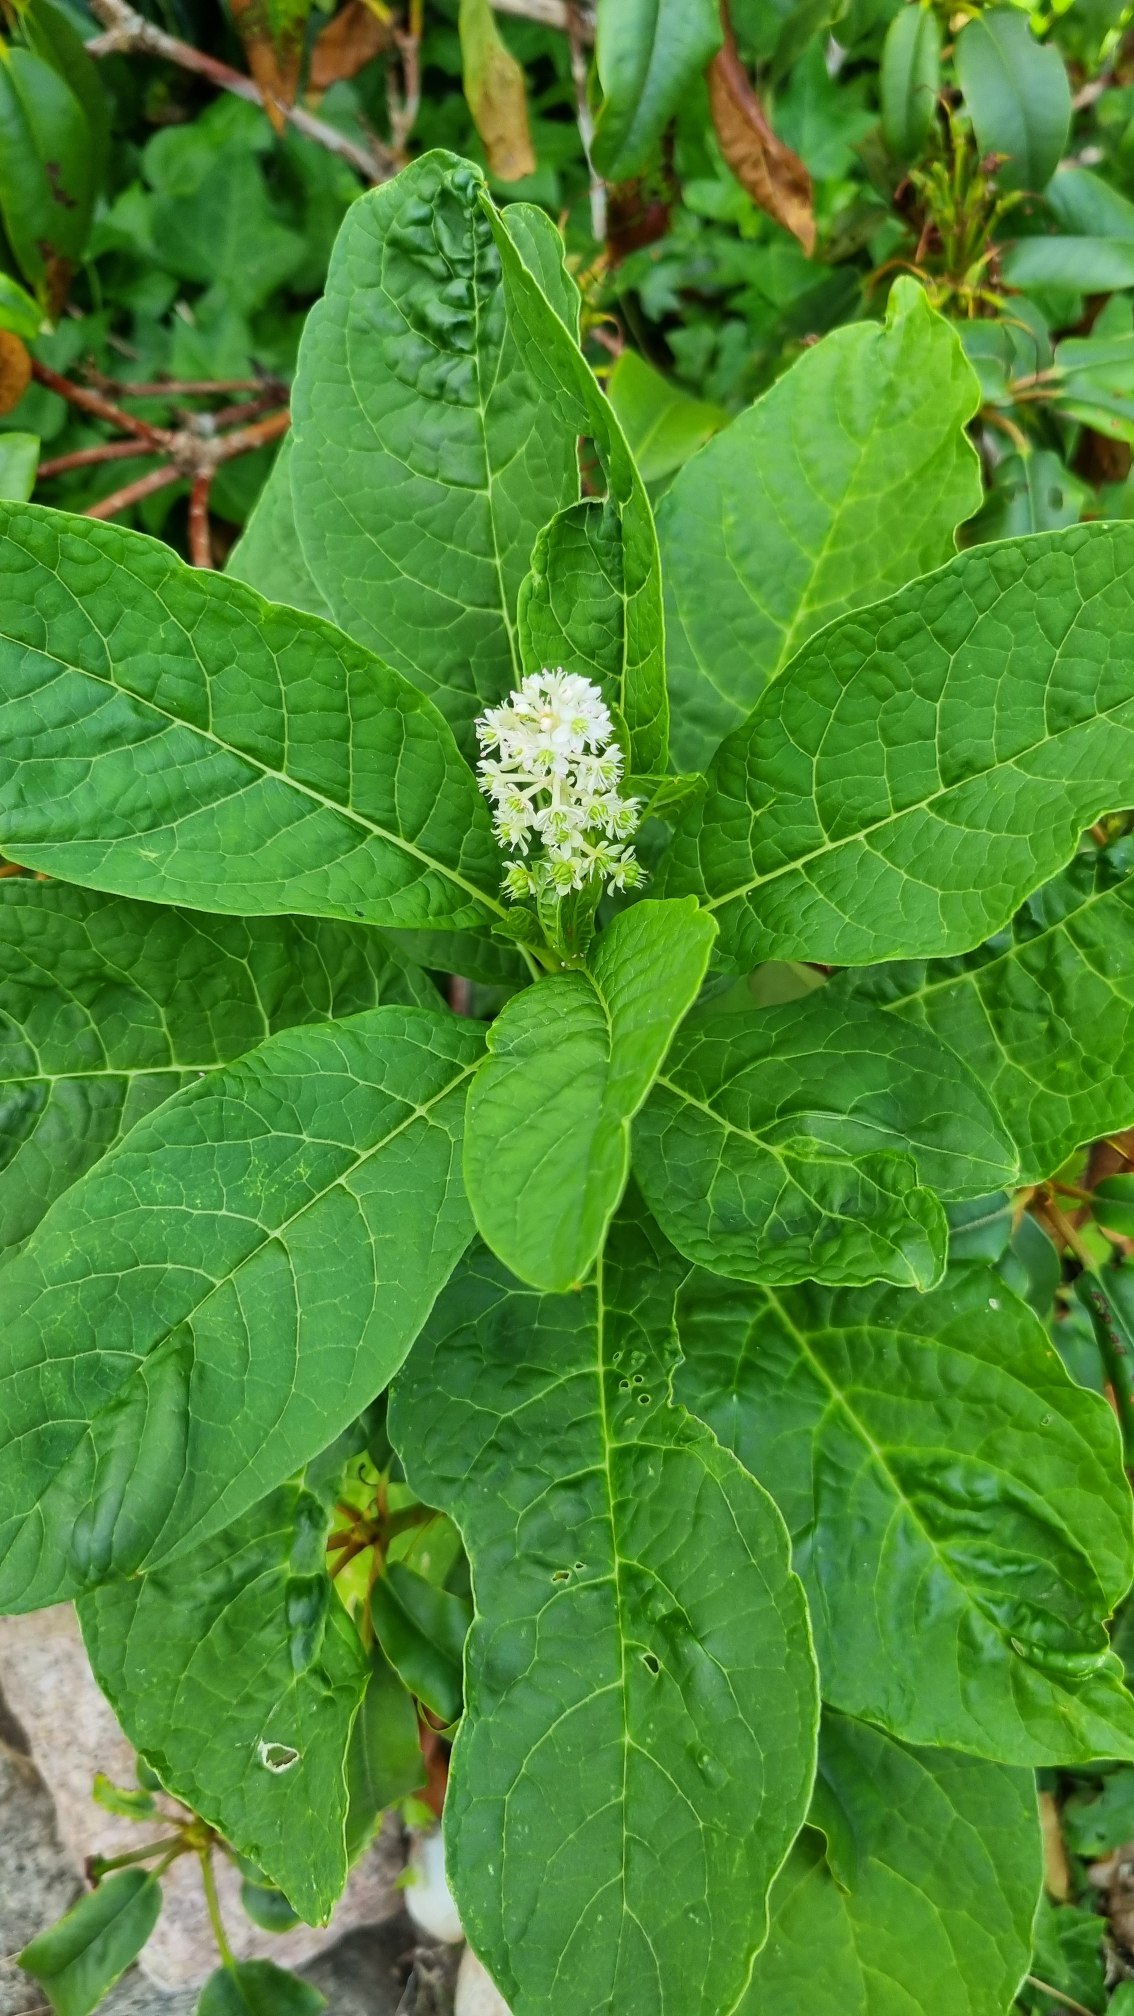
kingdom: Plantae
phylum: Tracheophyta
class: Magnoliopsida
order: Caryophyllales
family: Phytolaccaceae
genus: Phytolacca
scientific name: Phytolacca acinosa
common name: Asiatisk kermesbær
